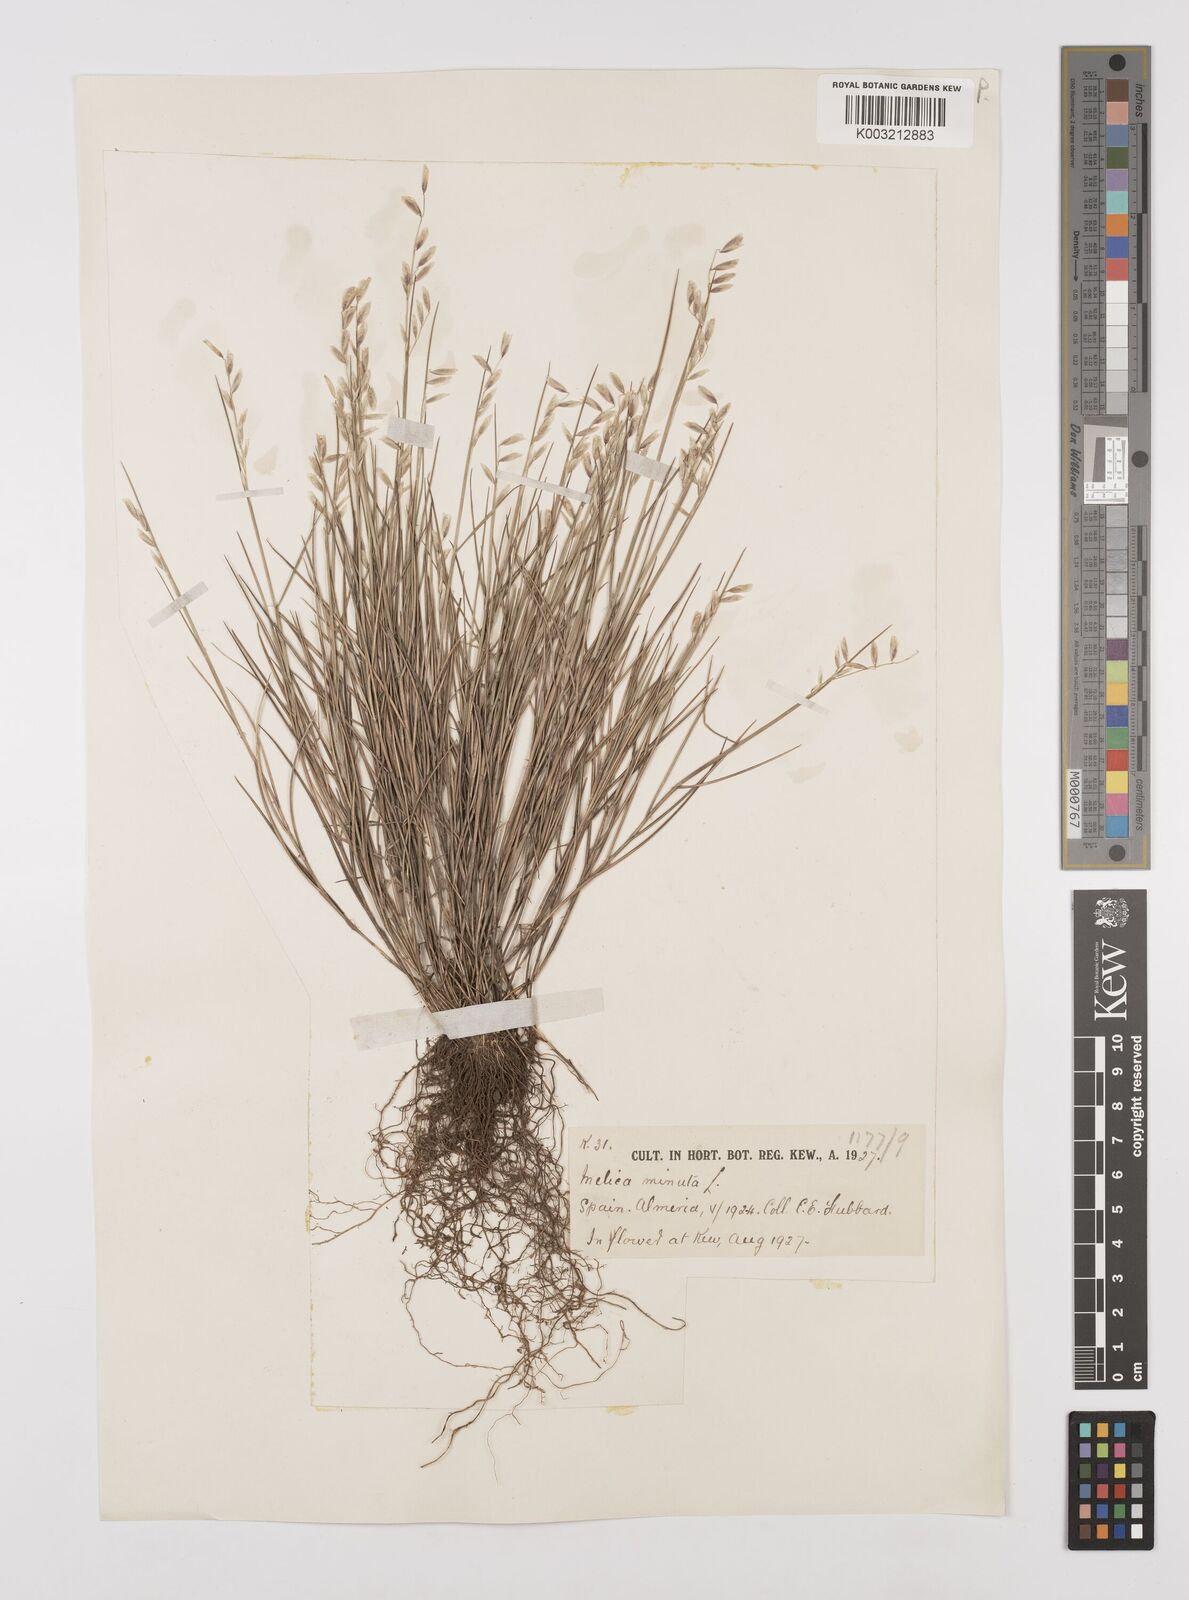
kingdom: Plantae
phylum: Tracheophyta
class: Liliopsida
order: Poales
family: Poaceae
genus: Melica
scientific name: Melica minuta
